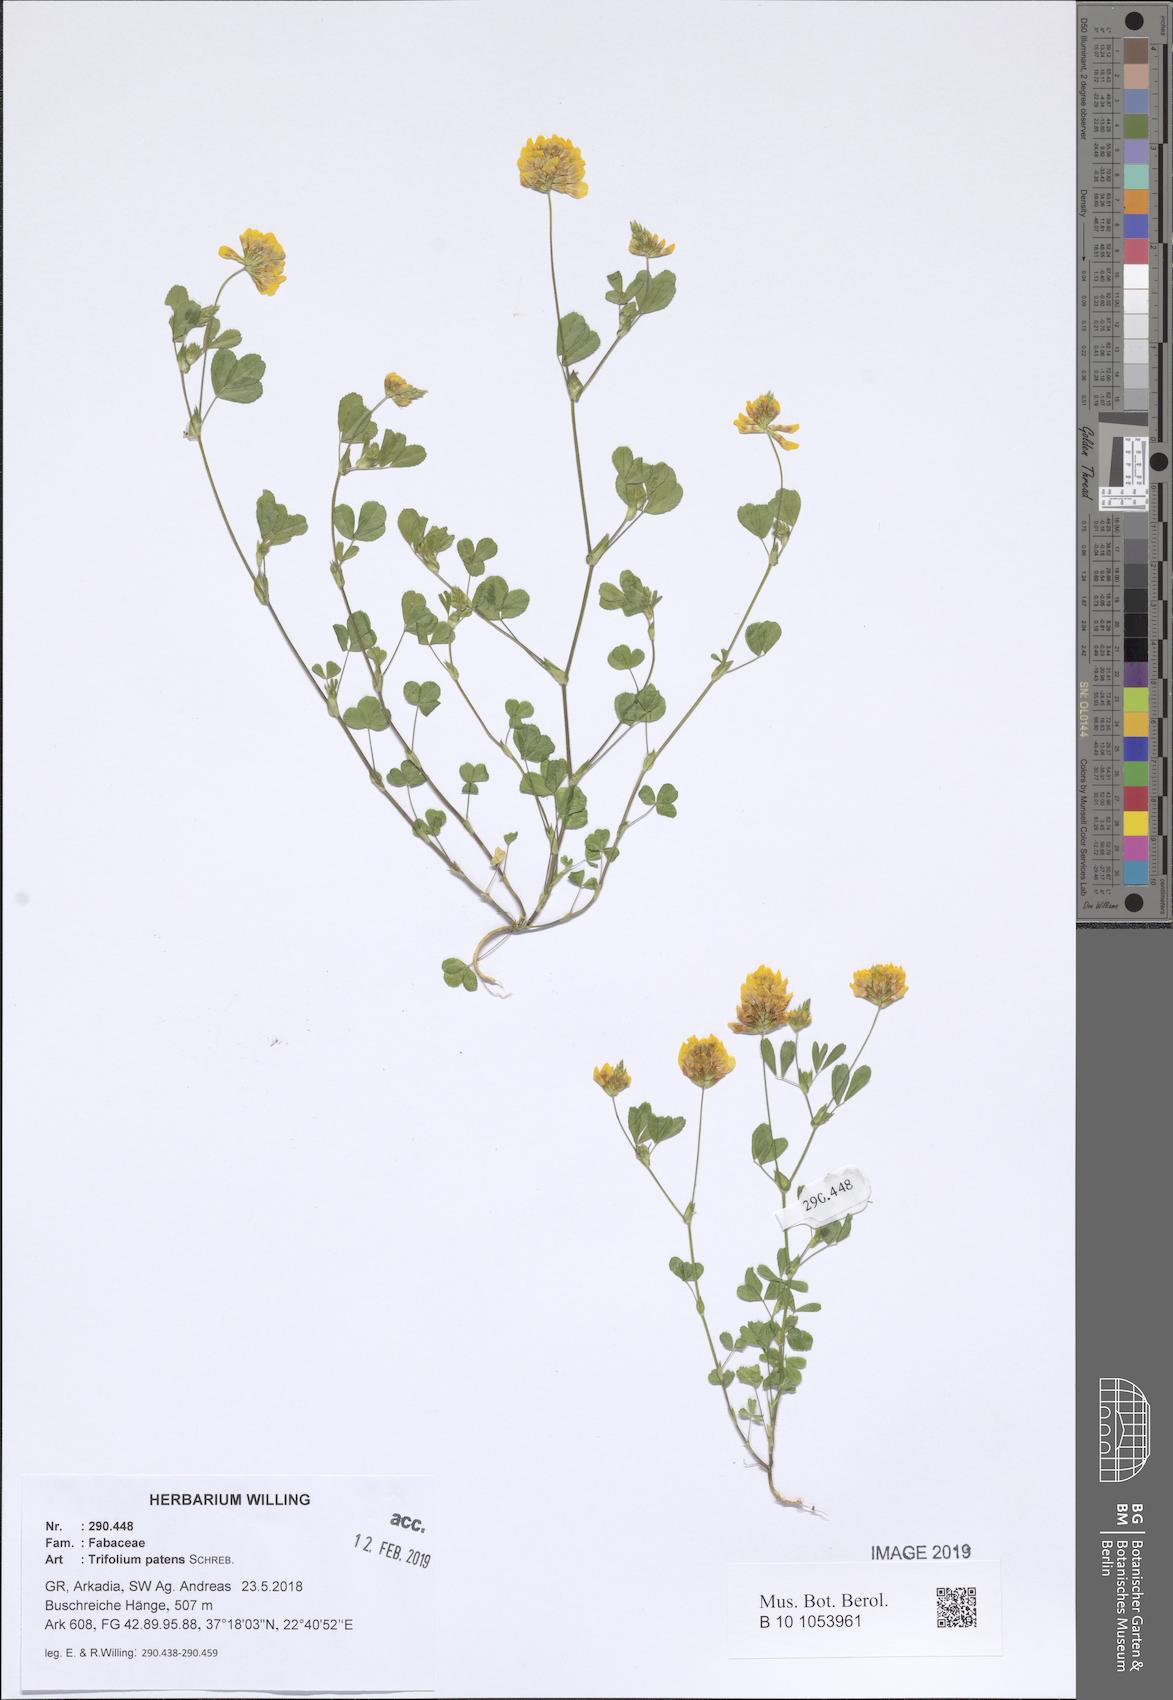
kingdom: Plantae
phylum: Tracheophyta
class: Magnoliopsida
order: Fabales
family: Fabaceae
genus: Trifolium
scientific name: Trifolium patens
